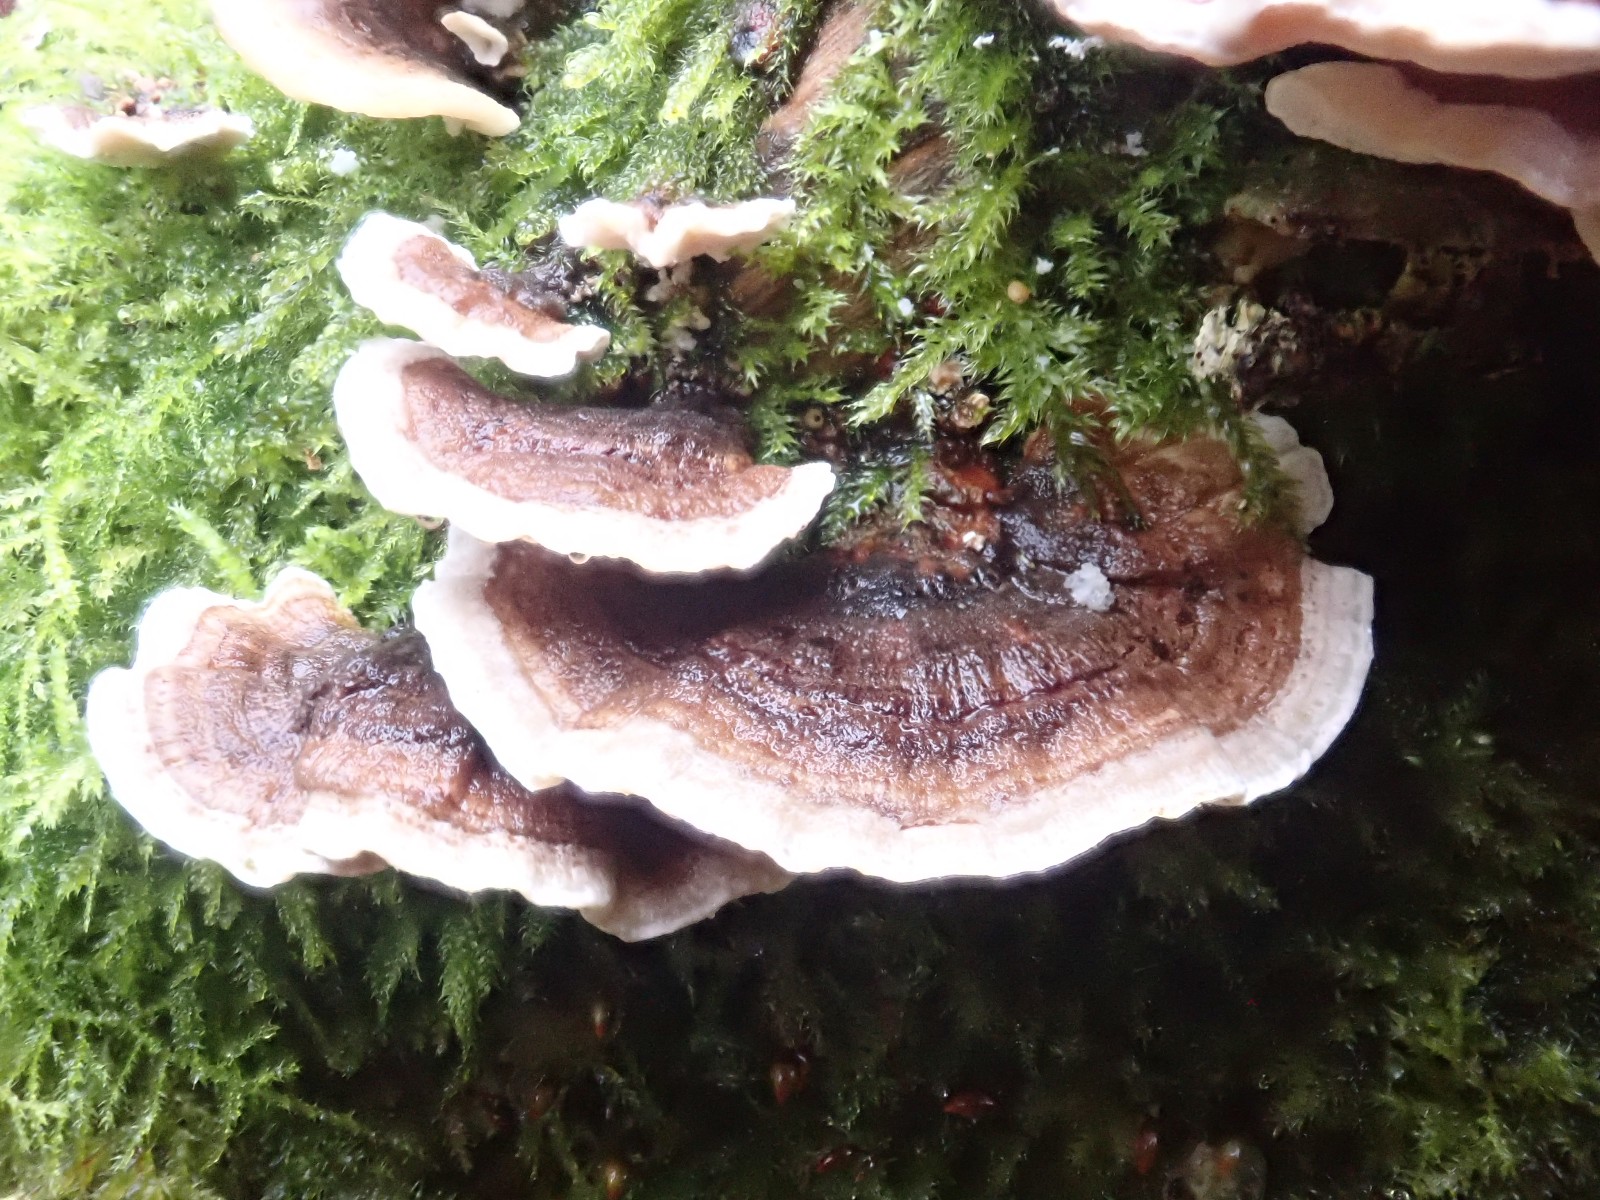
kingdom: Fungi
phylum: Basidiomycota
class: Agaricomycetes
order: Polyporales
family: Polyporaceae
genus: Trametes
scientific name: Trametes versicolor
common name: broget læderporesvamp
